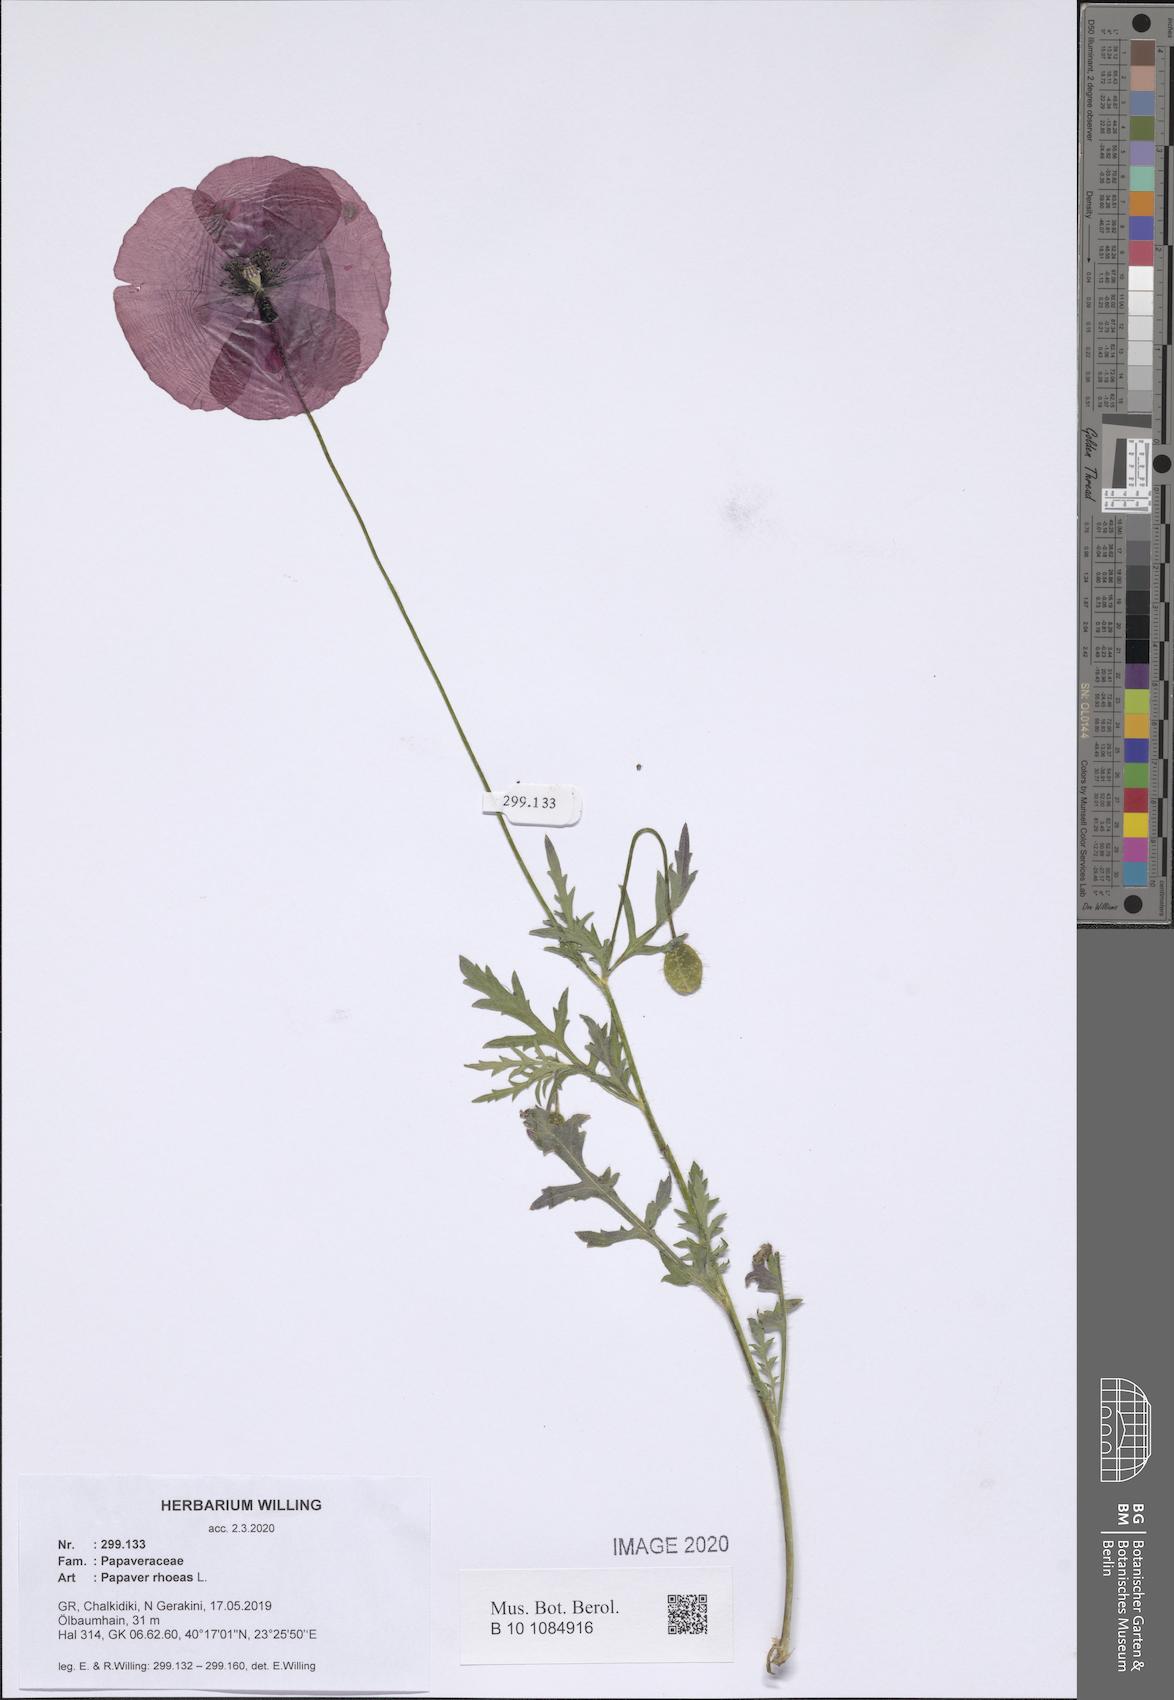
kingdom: Plantae
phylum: Tracheophyta
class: Magnoliopsida
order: Ranunculales
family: Papaveraceae
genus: Papaver
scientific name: Papaver rhoeas
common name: Corn poppy
